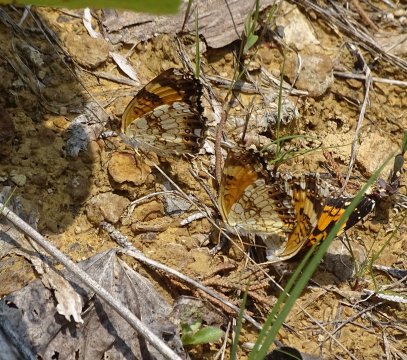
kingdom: Animalia
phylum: Arthropoda
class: Insecta
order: Lepidoptera
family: Nymphalidae
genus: Chlosyne
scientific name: Chlosyne nycteis
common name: Silvery Checkerspot
